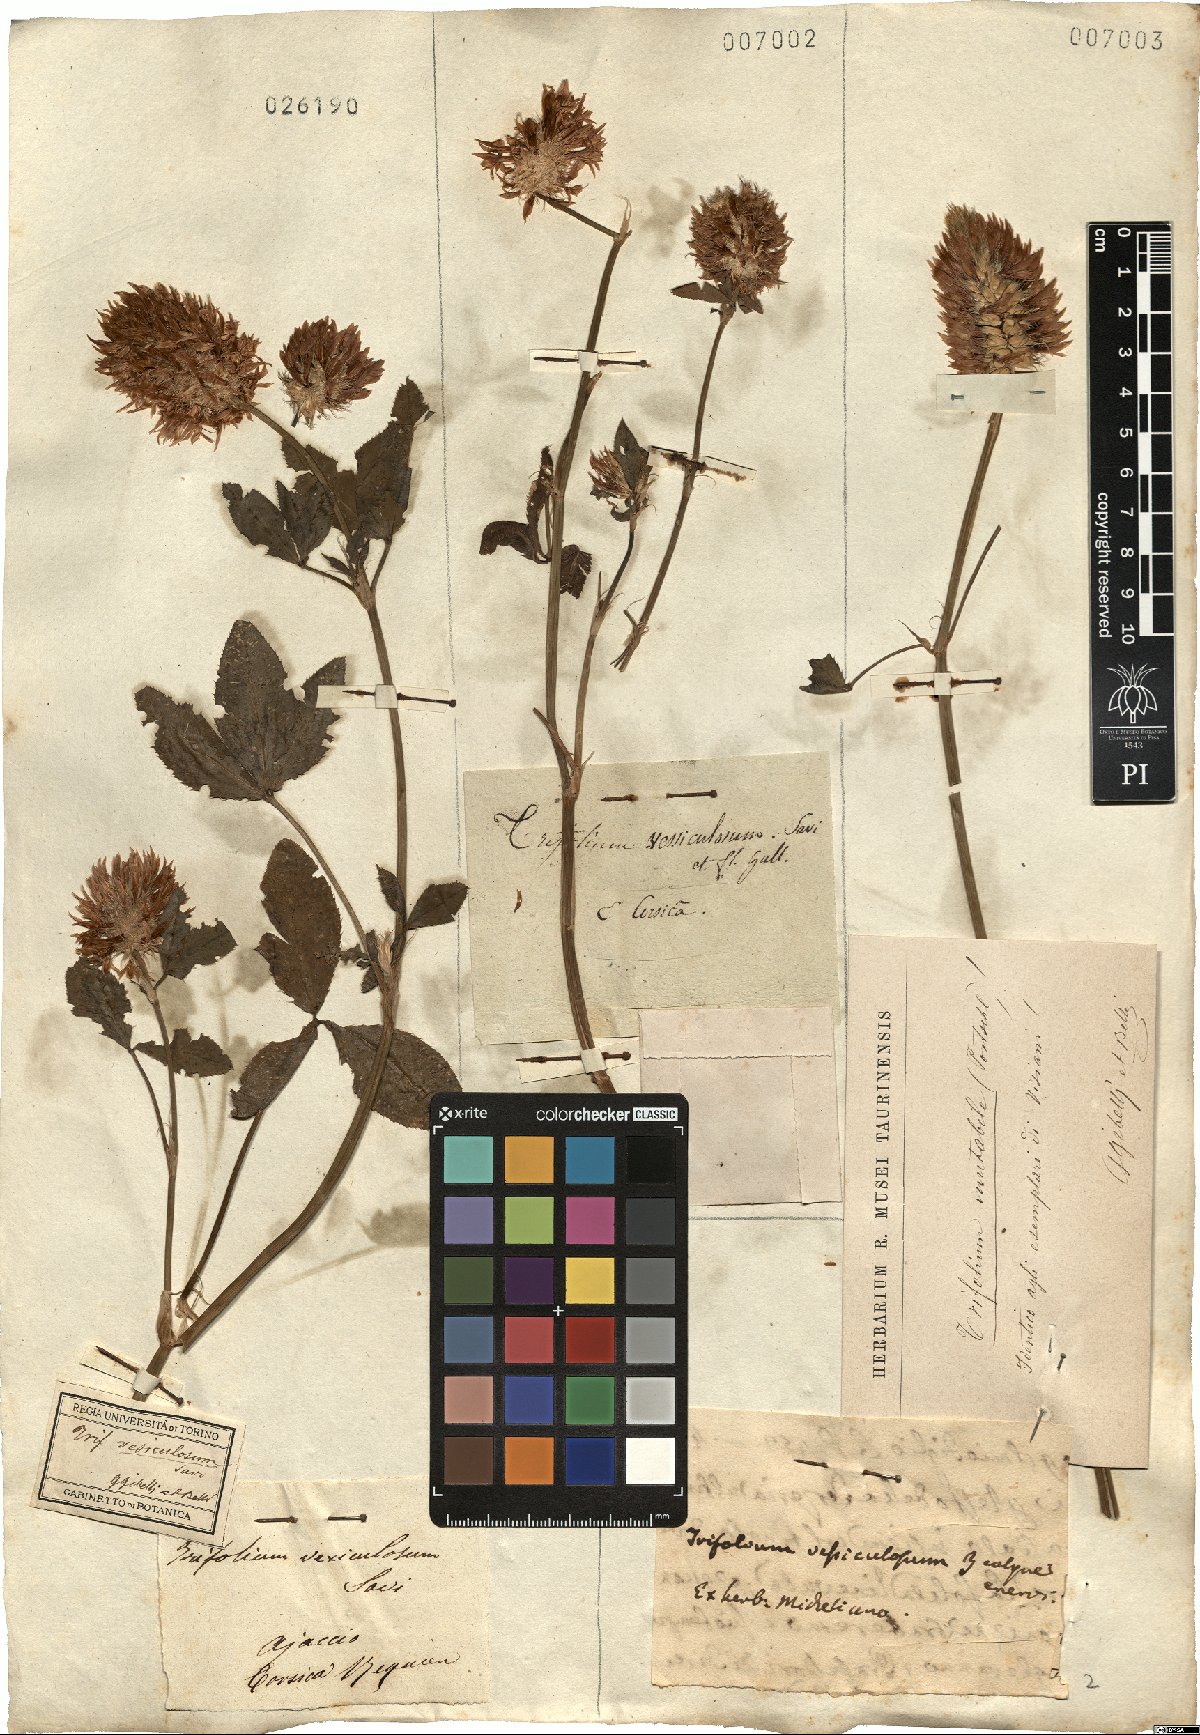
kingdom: Plantae
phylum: Tracheophyta
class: Magnoliopsida
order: Fabales
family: Fabaceae
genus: Trifolium
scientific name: Trifolium vesiculosum
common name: Arrowleaf clover
